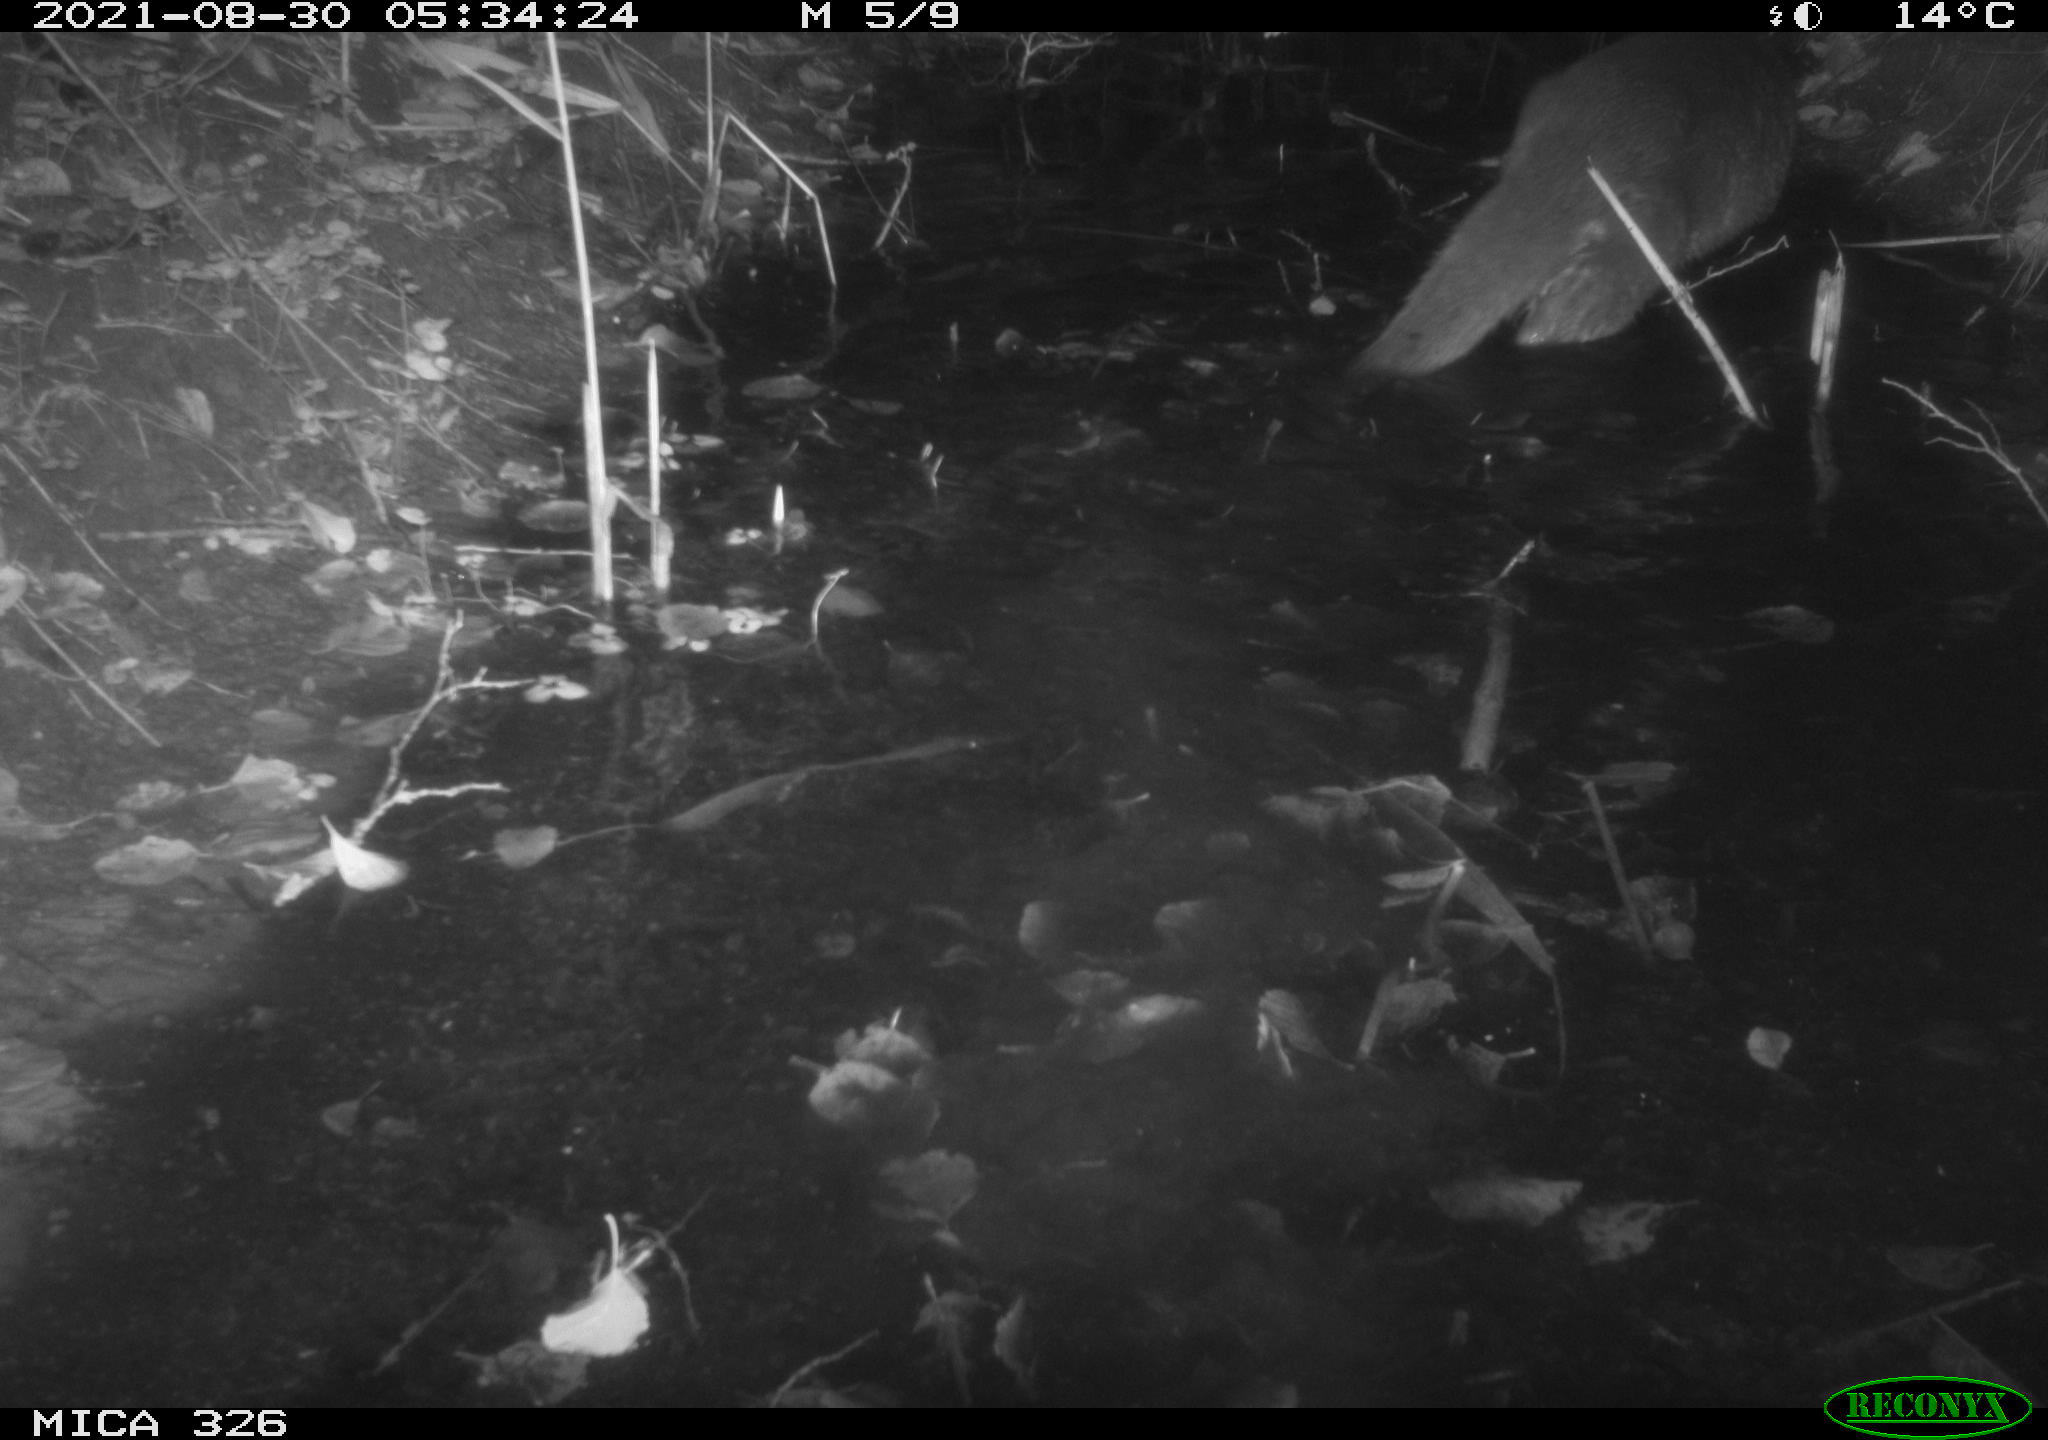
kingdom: Animalia
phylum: Chordata
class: Mammalia
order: Carnivora
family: Mustelidae
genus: Lutra
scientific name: Lutra lutra
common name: European otter
